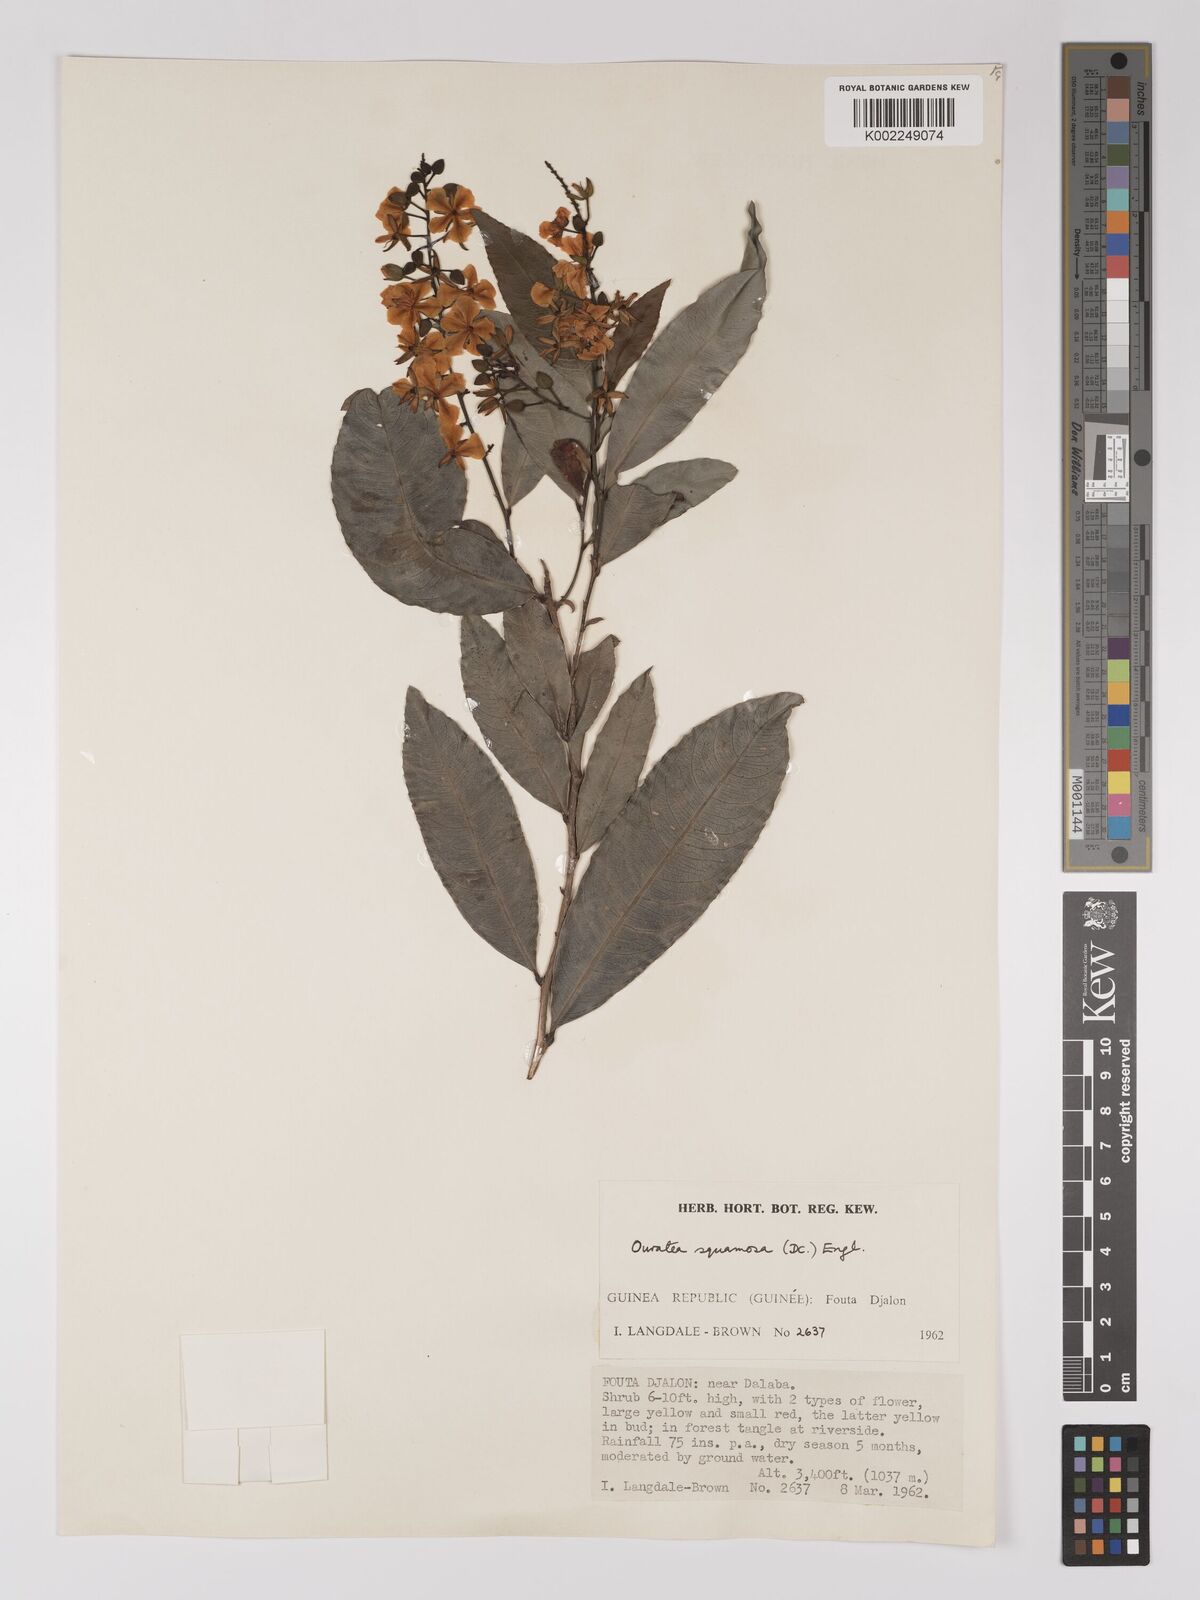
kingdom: Plantae
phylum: Tracheophyta
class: Magnoliopsida
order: Malpighiales
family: Ochnaceae
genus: Campylospermum
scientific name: Campylospermum squamosum
